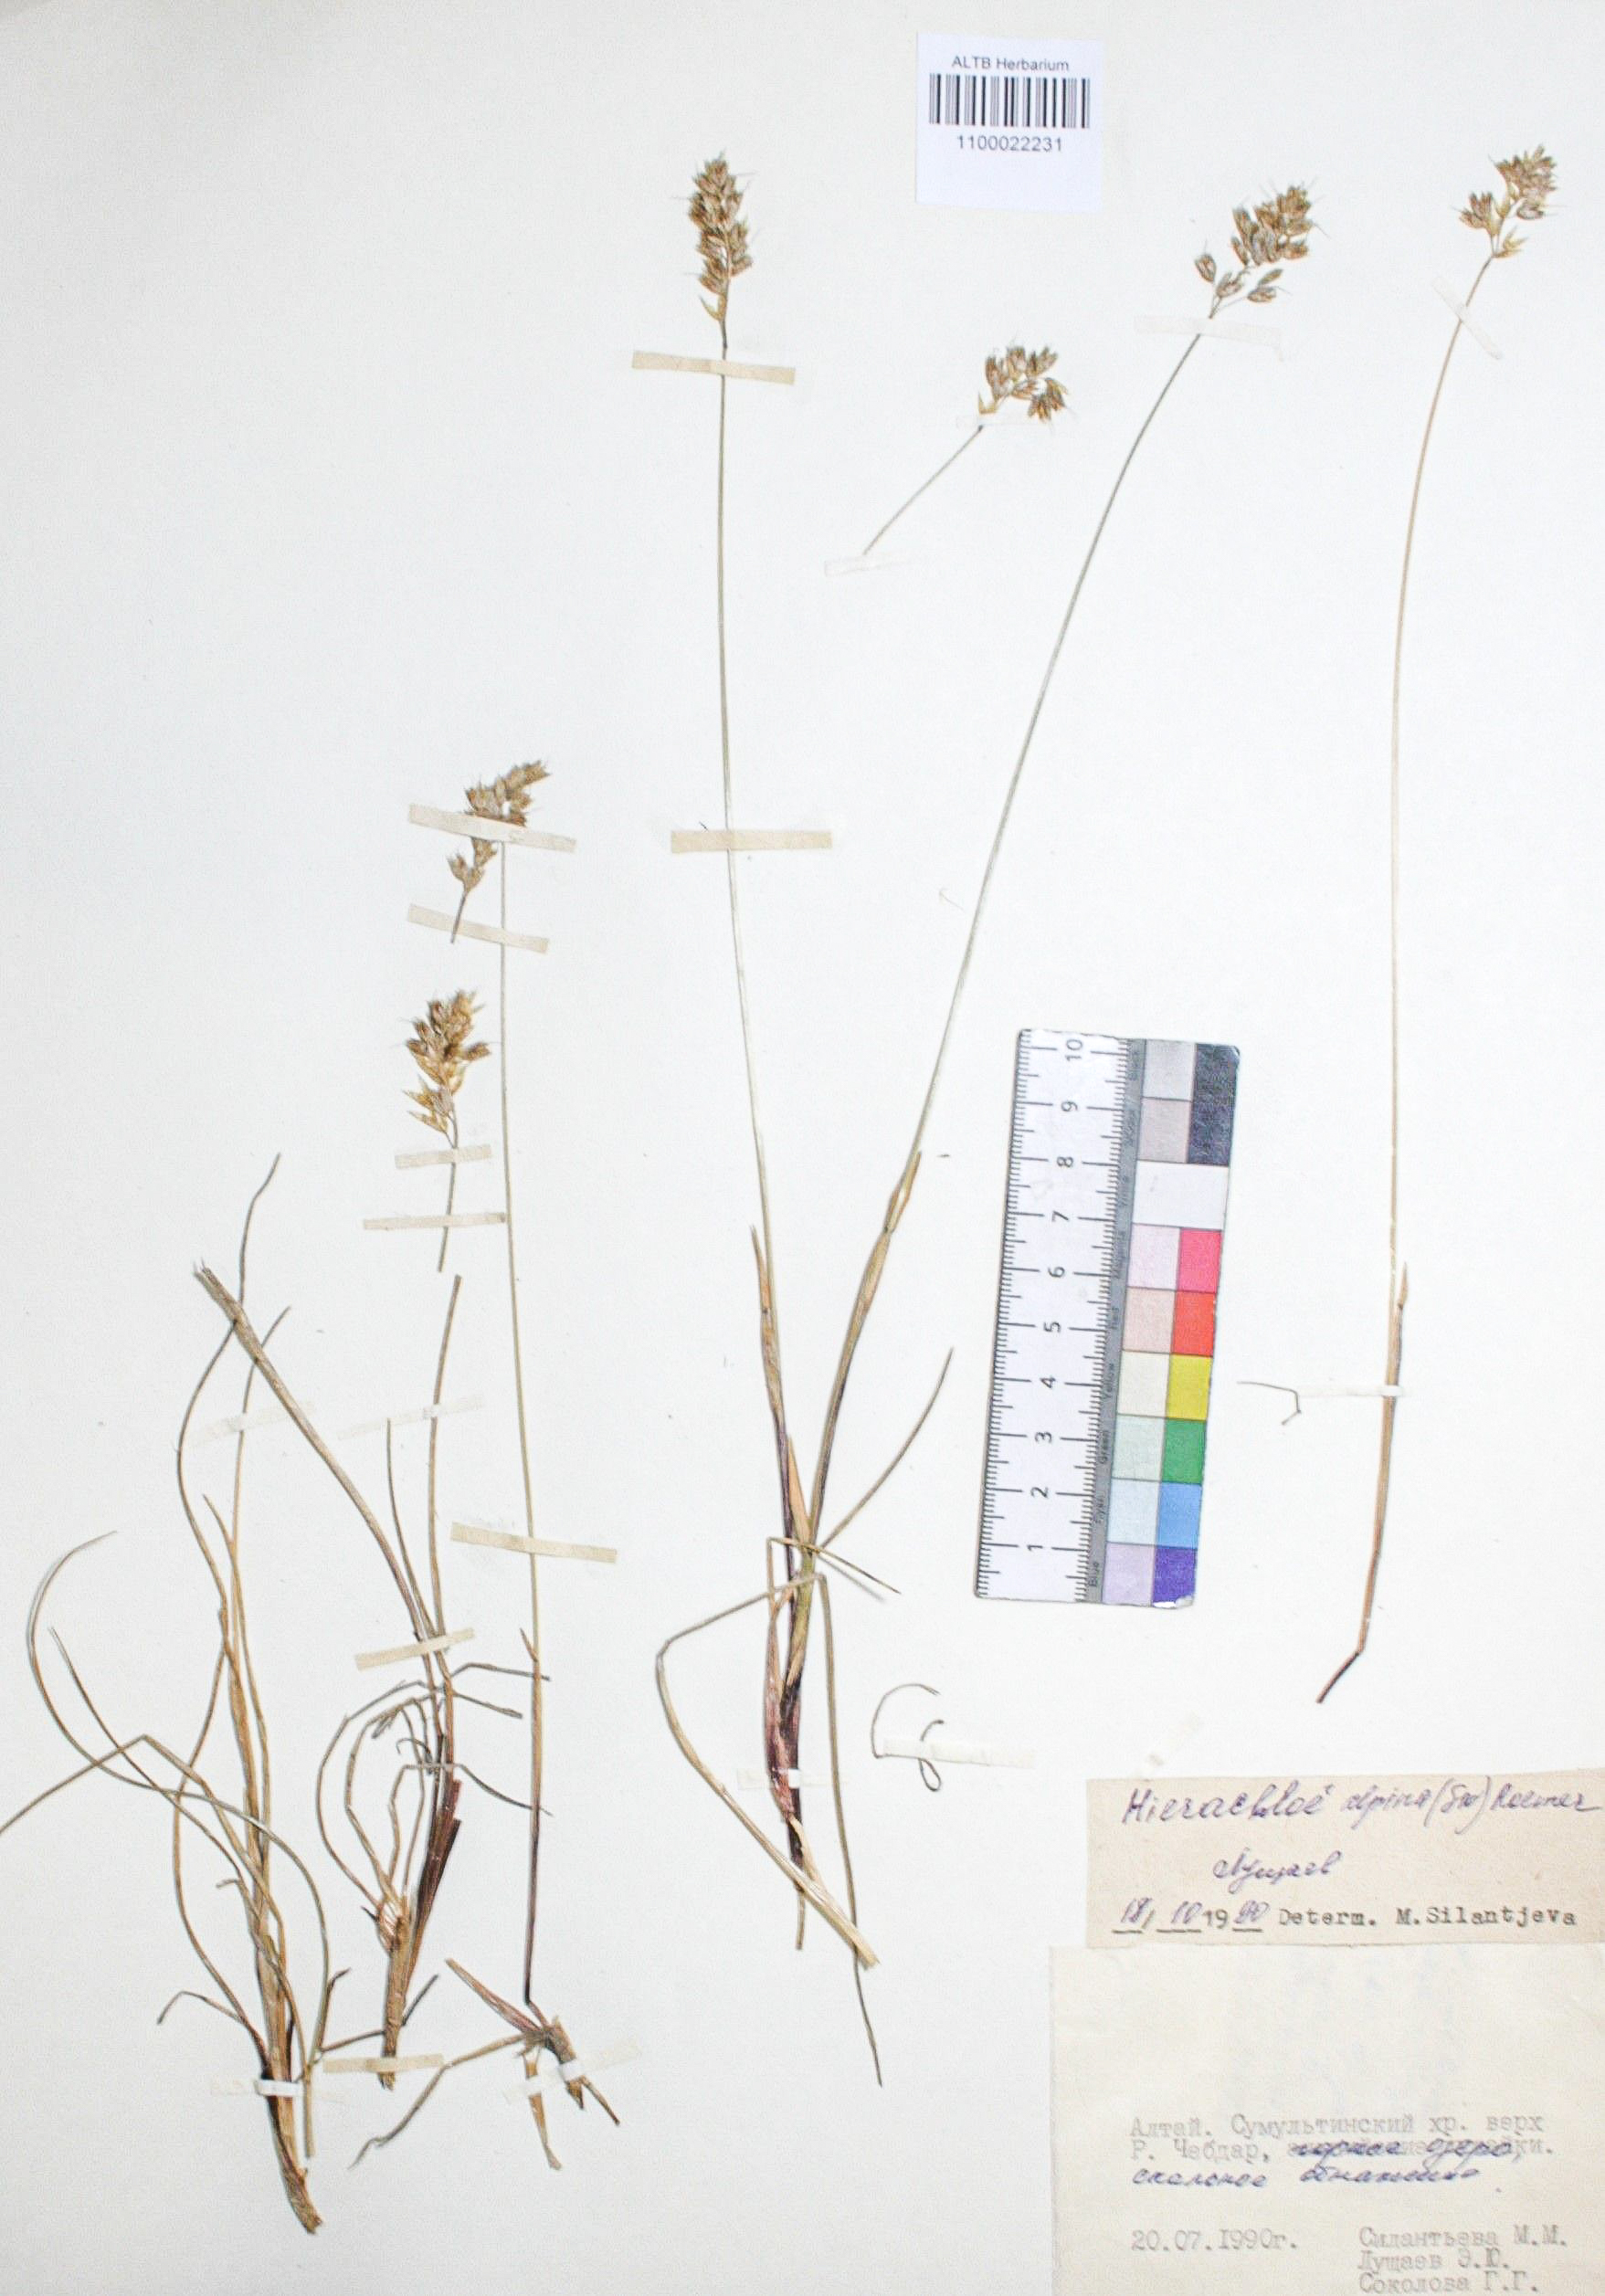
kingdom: Plantae
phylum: Tracheophyta
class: Liliopsida
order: Poales
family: Poaceae
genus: Anthoxanthum
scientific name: Anthoxanthum monticola
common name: Alpine sweetgrass
